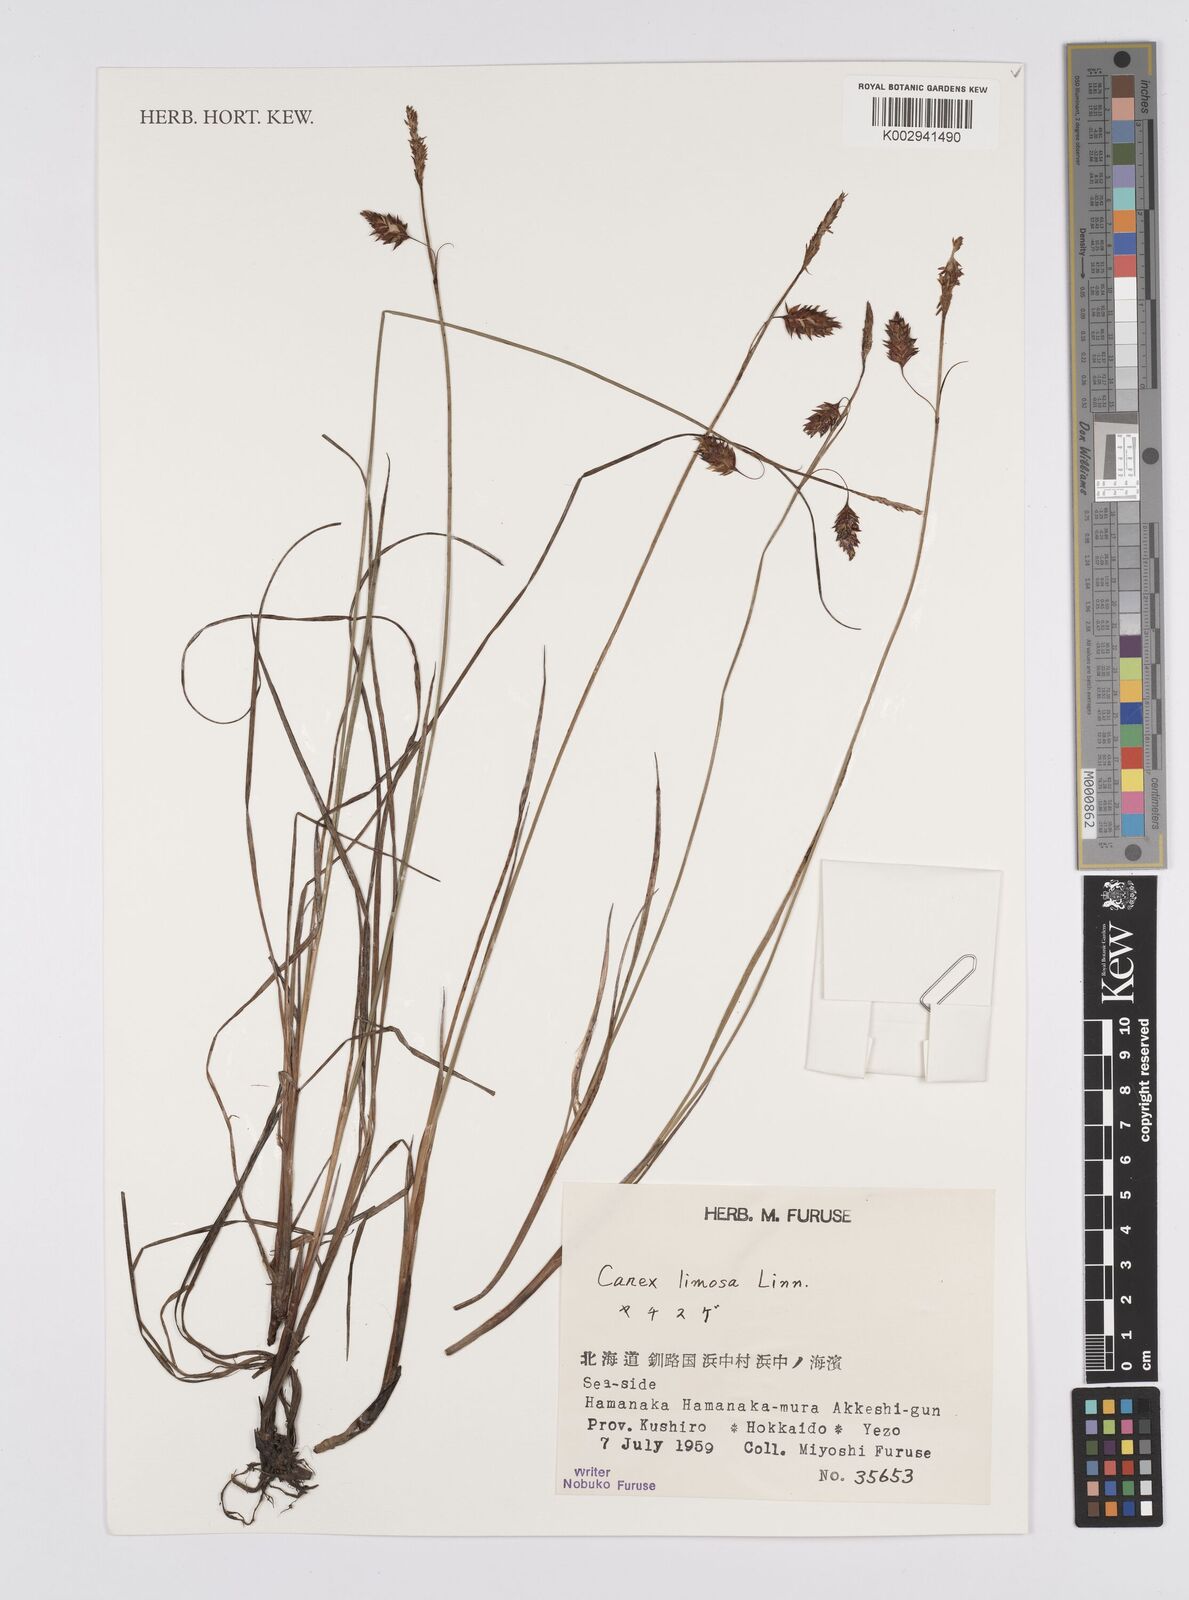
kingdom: Plantae
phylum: Tracheophyta
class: Liliopsida
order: Poales
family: Cyperaceae
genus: Carex
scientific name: Carex limosa
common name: Bog sedge
